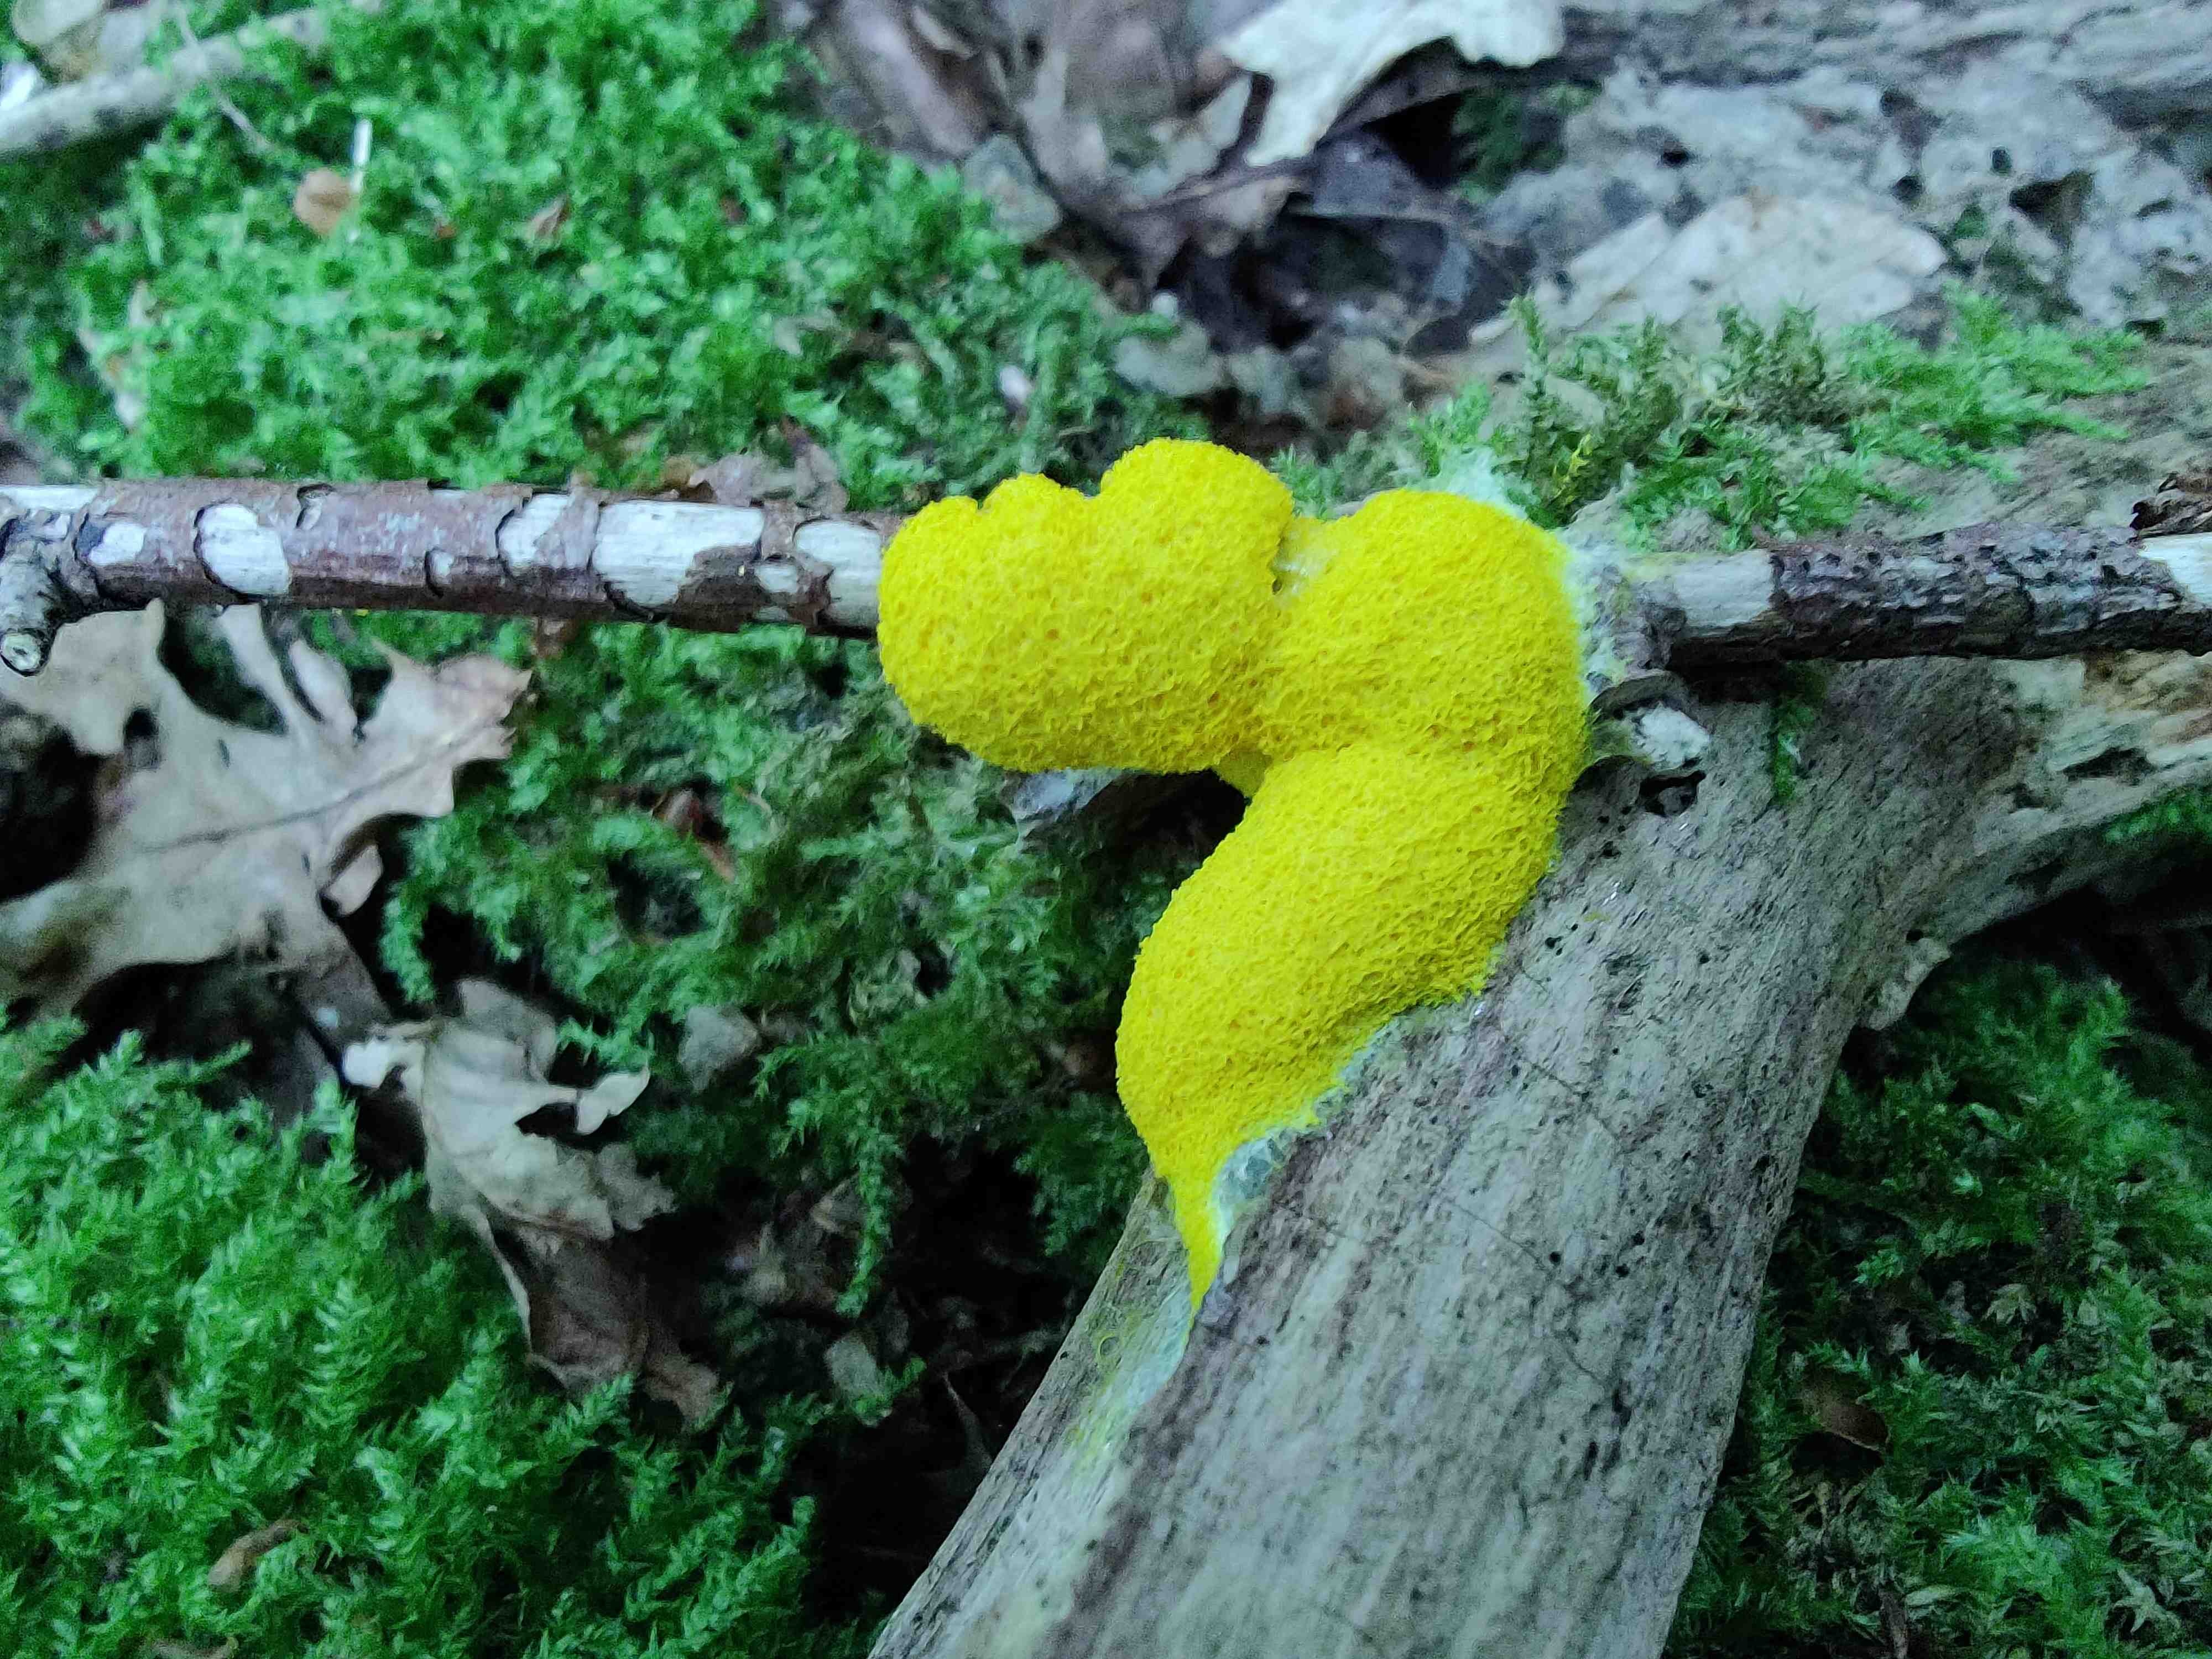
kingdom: Protozoa
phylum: Mycetozoa
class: Myxomycetes
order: Physarales
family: Physaraceae
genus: Fuligo
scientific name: Fuligo septica
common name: gul troldsmør
